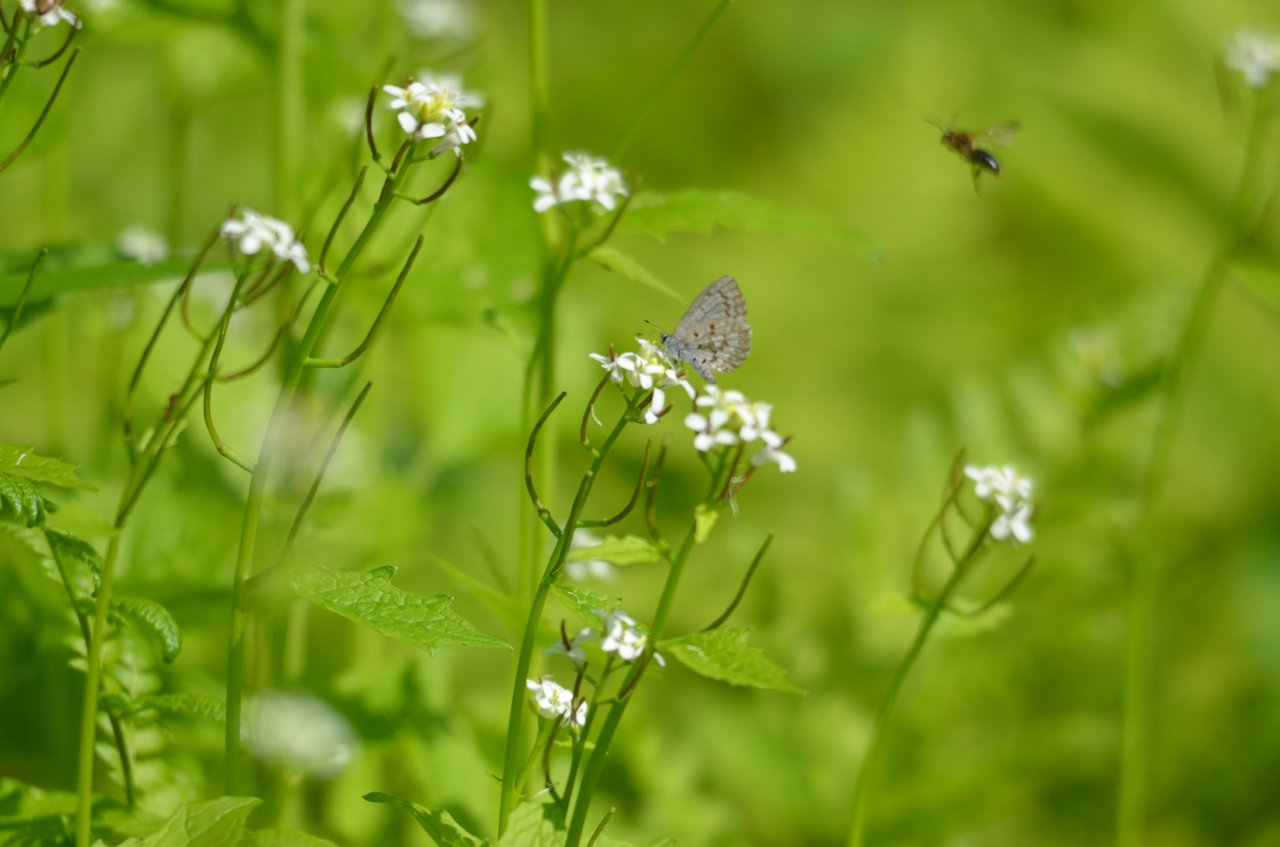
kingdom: Animalia
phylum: Arthropoda
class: Insecta
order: Lepidoptera
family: Lycaenidae
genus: Celastrina
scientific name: Celastrina
